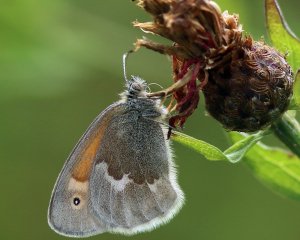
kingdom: Animalia
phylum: Arthropoda
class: Insecta
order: Lepidoptera
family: Nymphalidae
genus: Coenonympha
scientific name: Coenonympha tullia
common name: Large Heath
